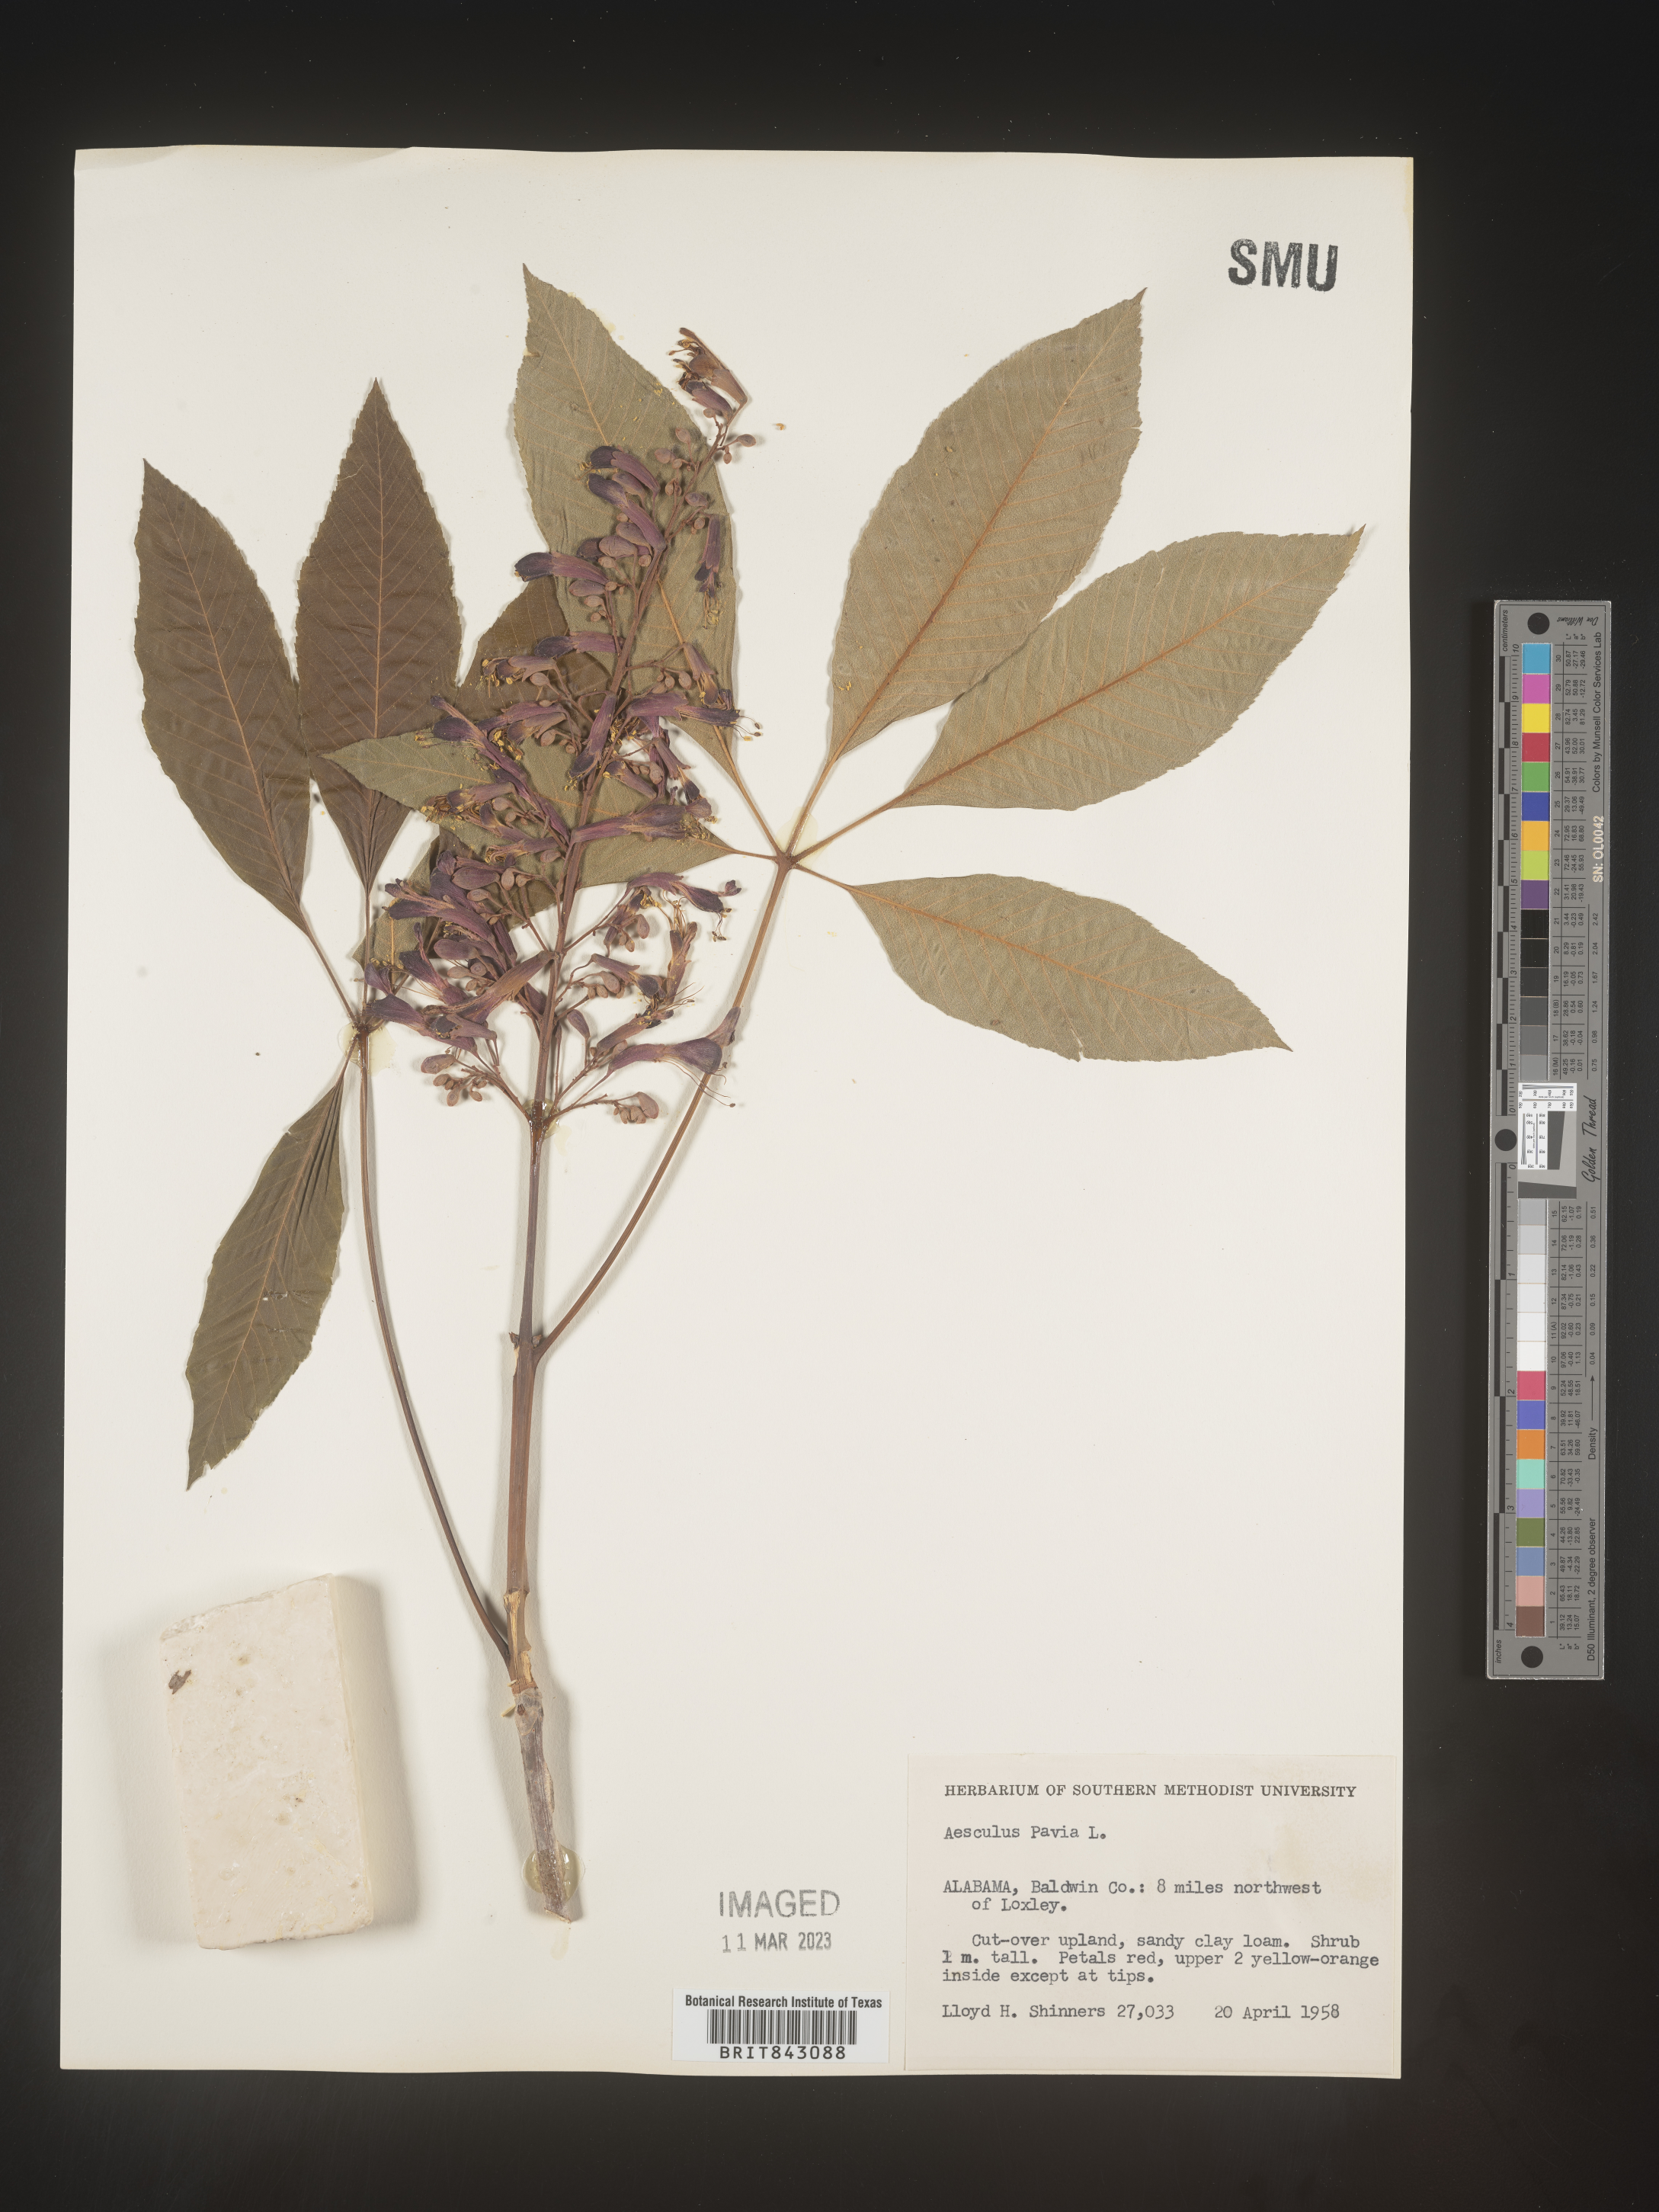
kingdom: Plantae
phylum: Tracheophyta
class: Magnoliopsida
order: Sapindales
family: Sapindaceae
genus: Aesculus
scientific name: Aesculus pavia
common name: Red buckeye
